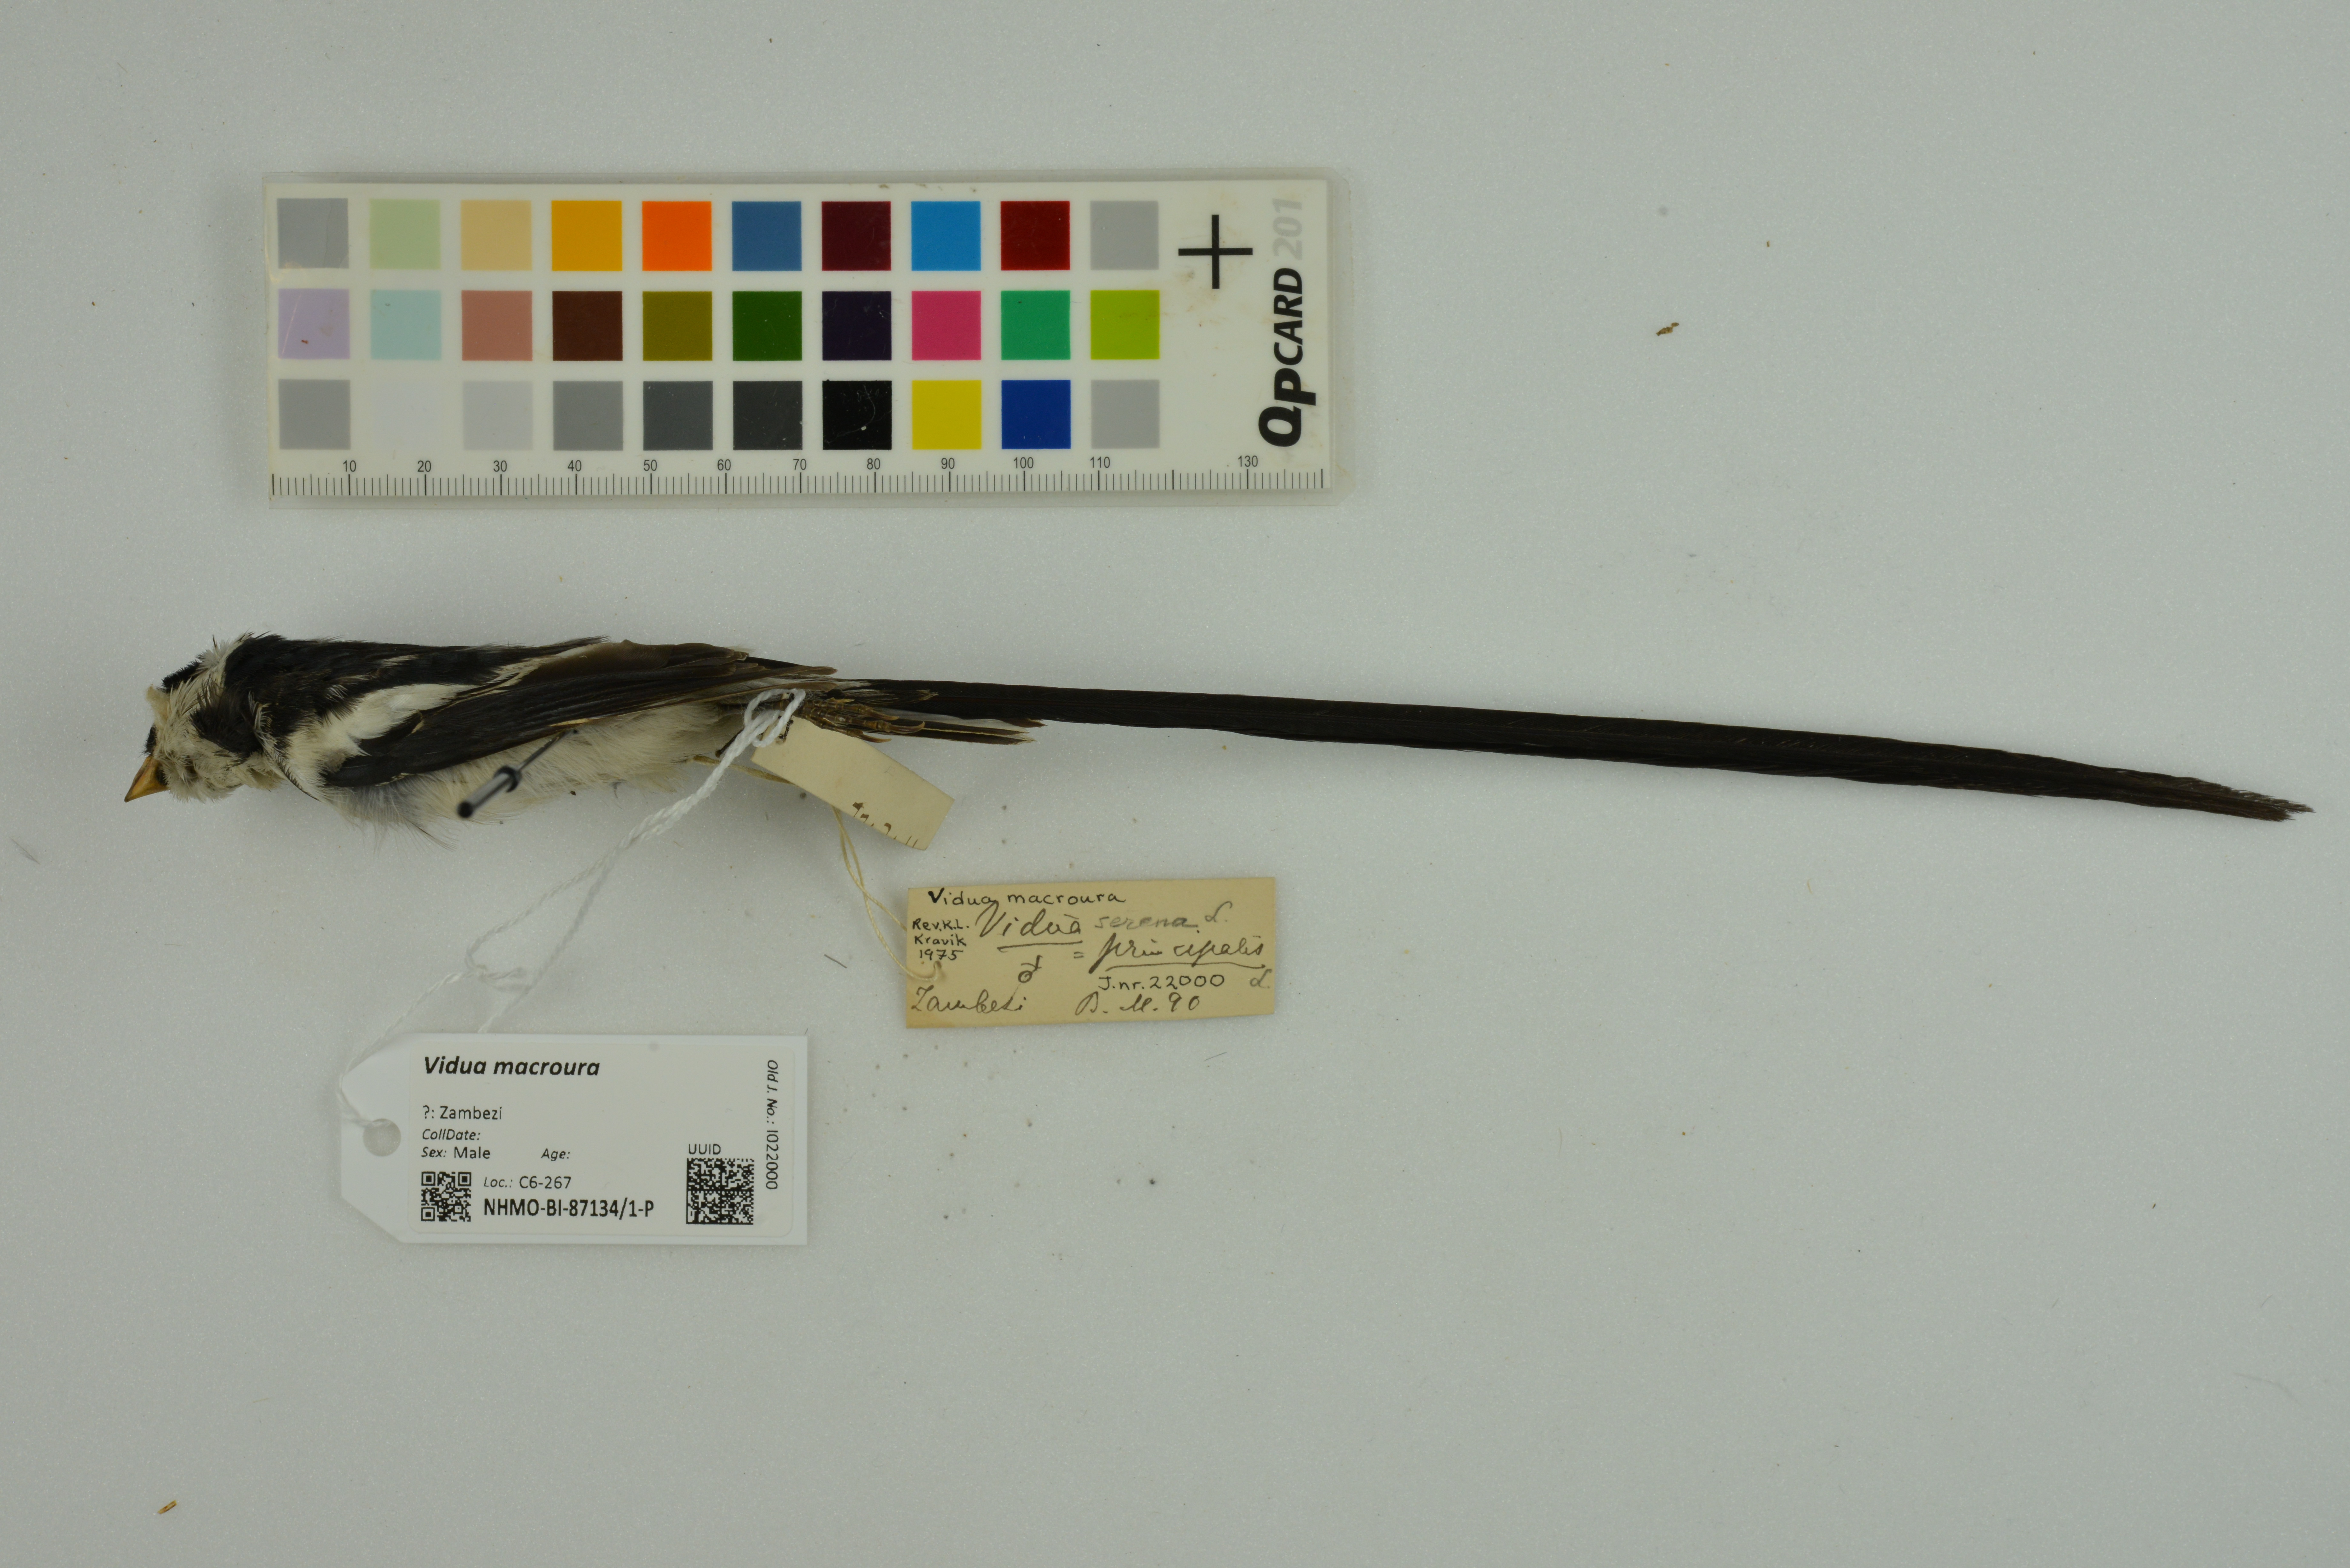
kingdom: Animalia
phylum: Chordata
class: Aves
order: Passeriformes
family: Viduidae
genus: Vidua
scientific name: Vidua macroura
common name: Pin-tailed whydah
